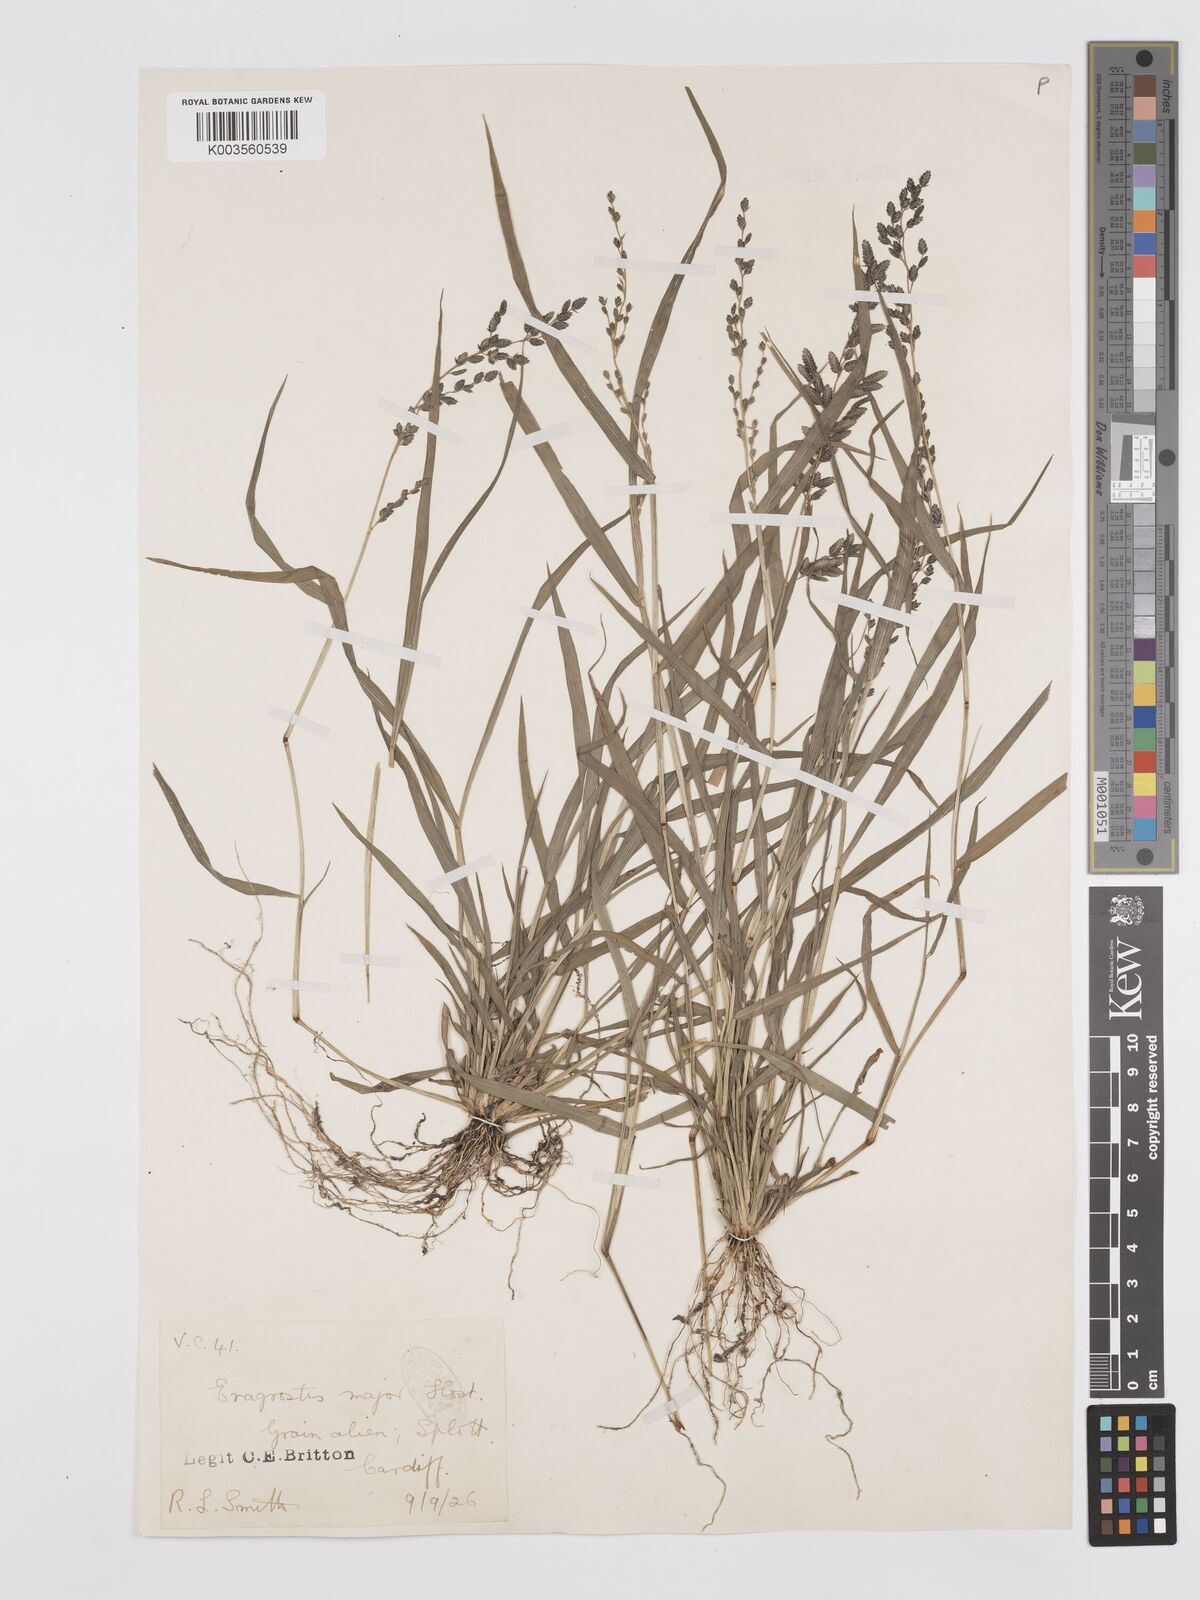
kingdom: Plantae
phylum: Tracheophyta
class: Liliopsida
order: Poales
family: Poaceae
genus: Eragrostis
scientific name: Eragrostis cilianensis
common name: Stinkgrass
